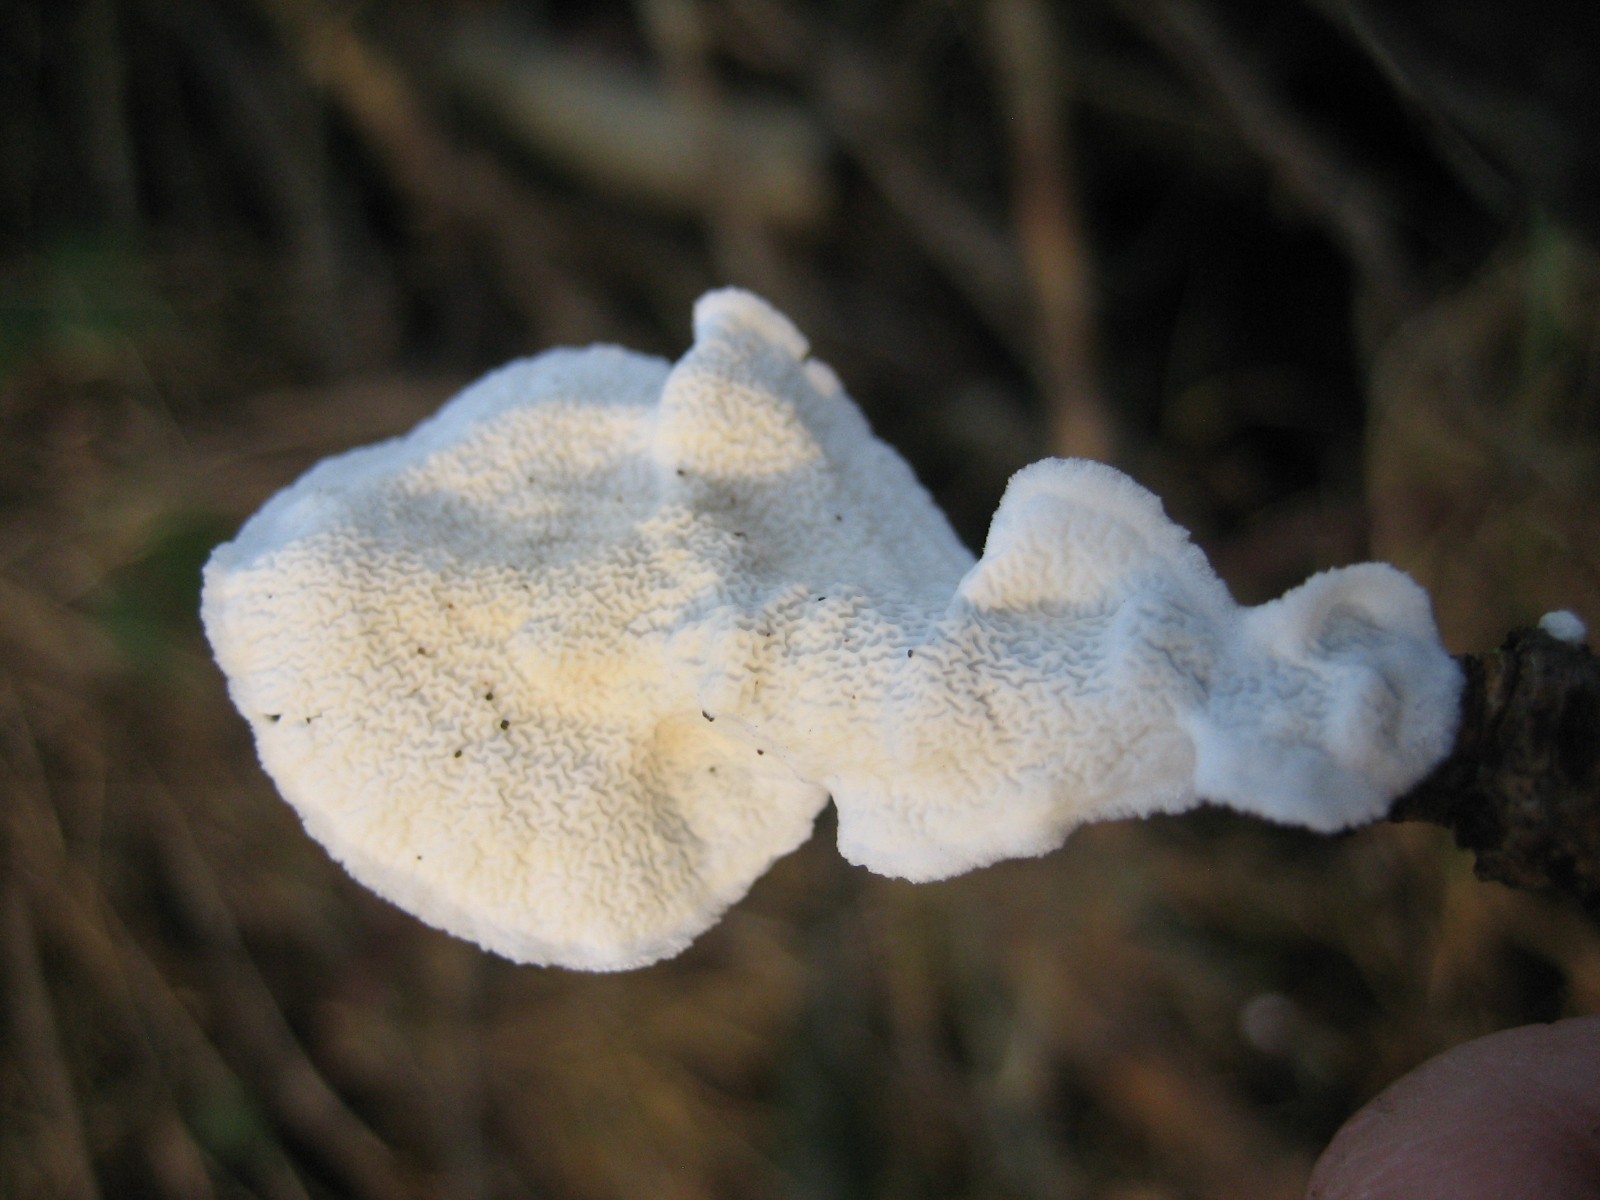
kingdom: Fungi
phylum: Basidiomycota
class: Agaricomycetes
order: Polyporales
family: Irpicaceae
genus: Byssomerulius
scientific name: Byssomerulius corium
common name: læder-åresvamp
